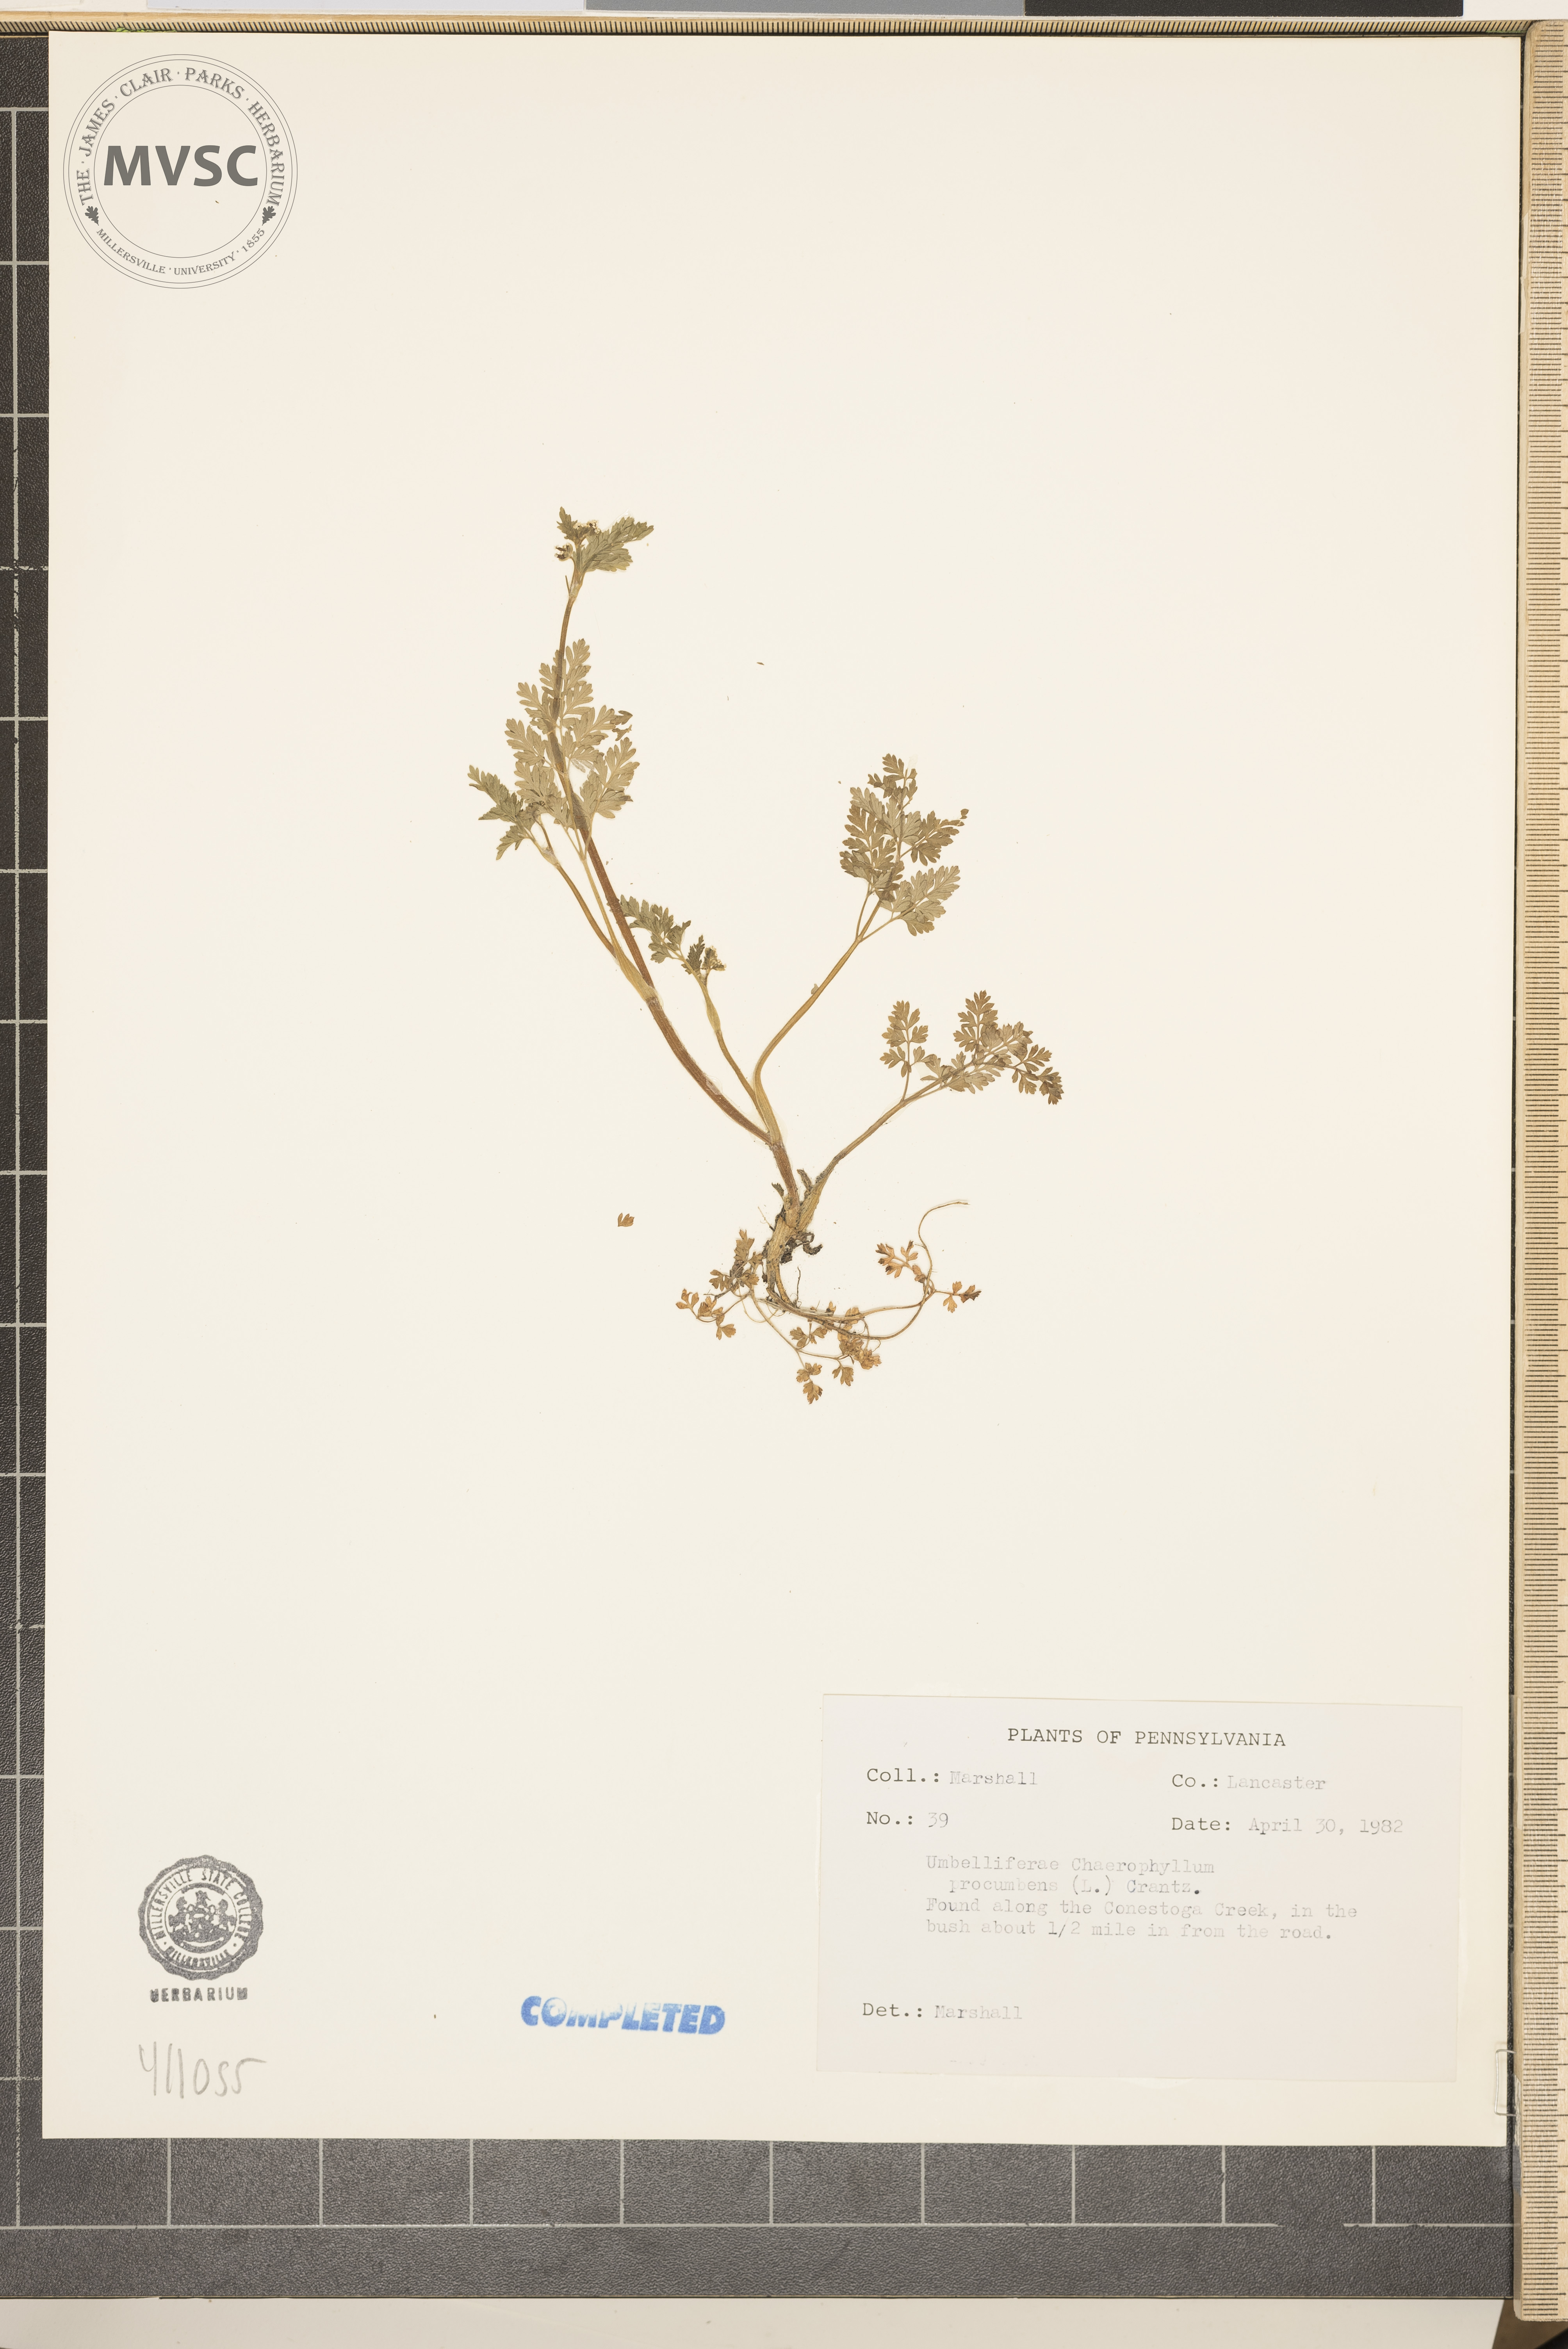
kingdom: Plantae
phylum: Tracheophyta
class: Magnoliopsida
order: Apiales
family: Apiaceae
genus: Chaerophyllum
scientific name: Chaerophyllum procumbens
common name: Spreading chervil
